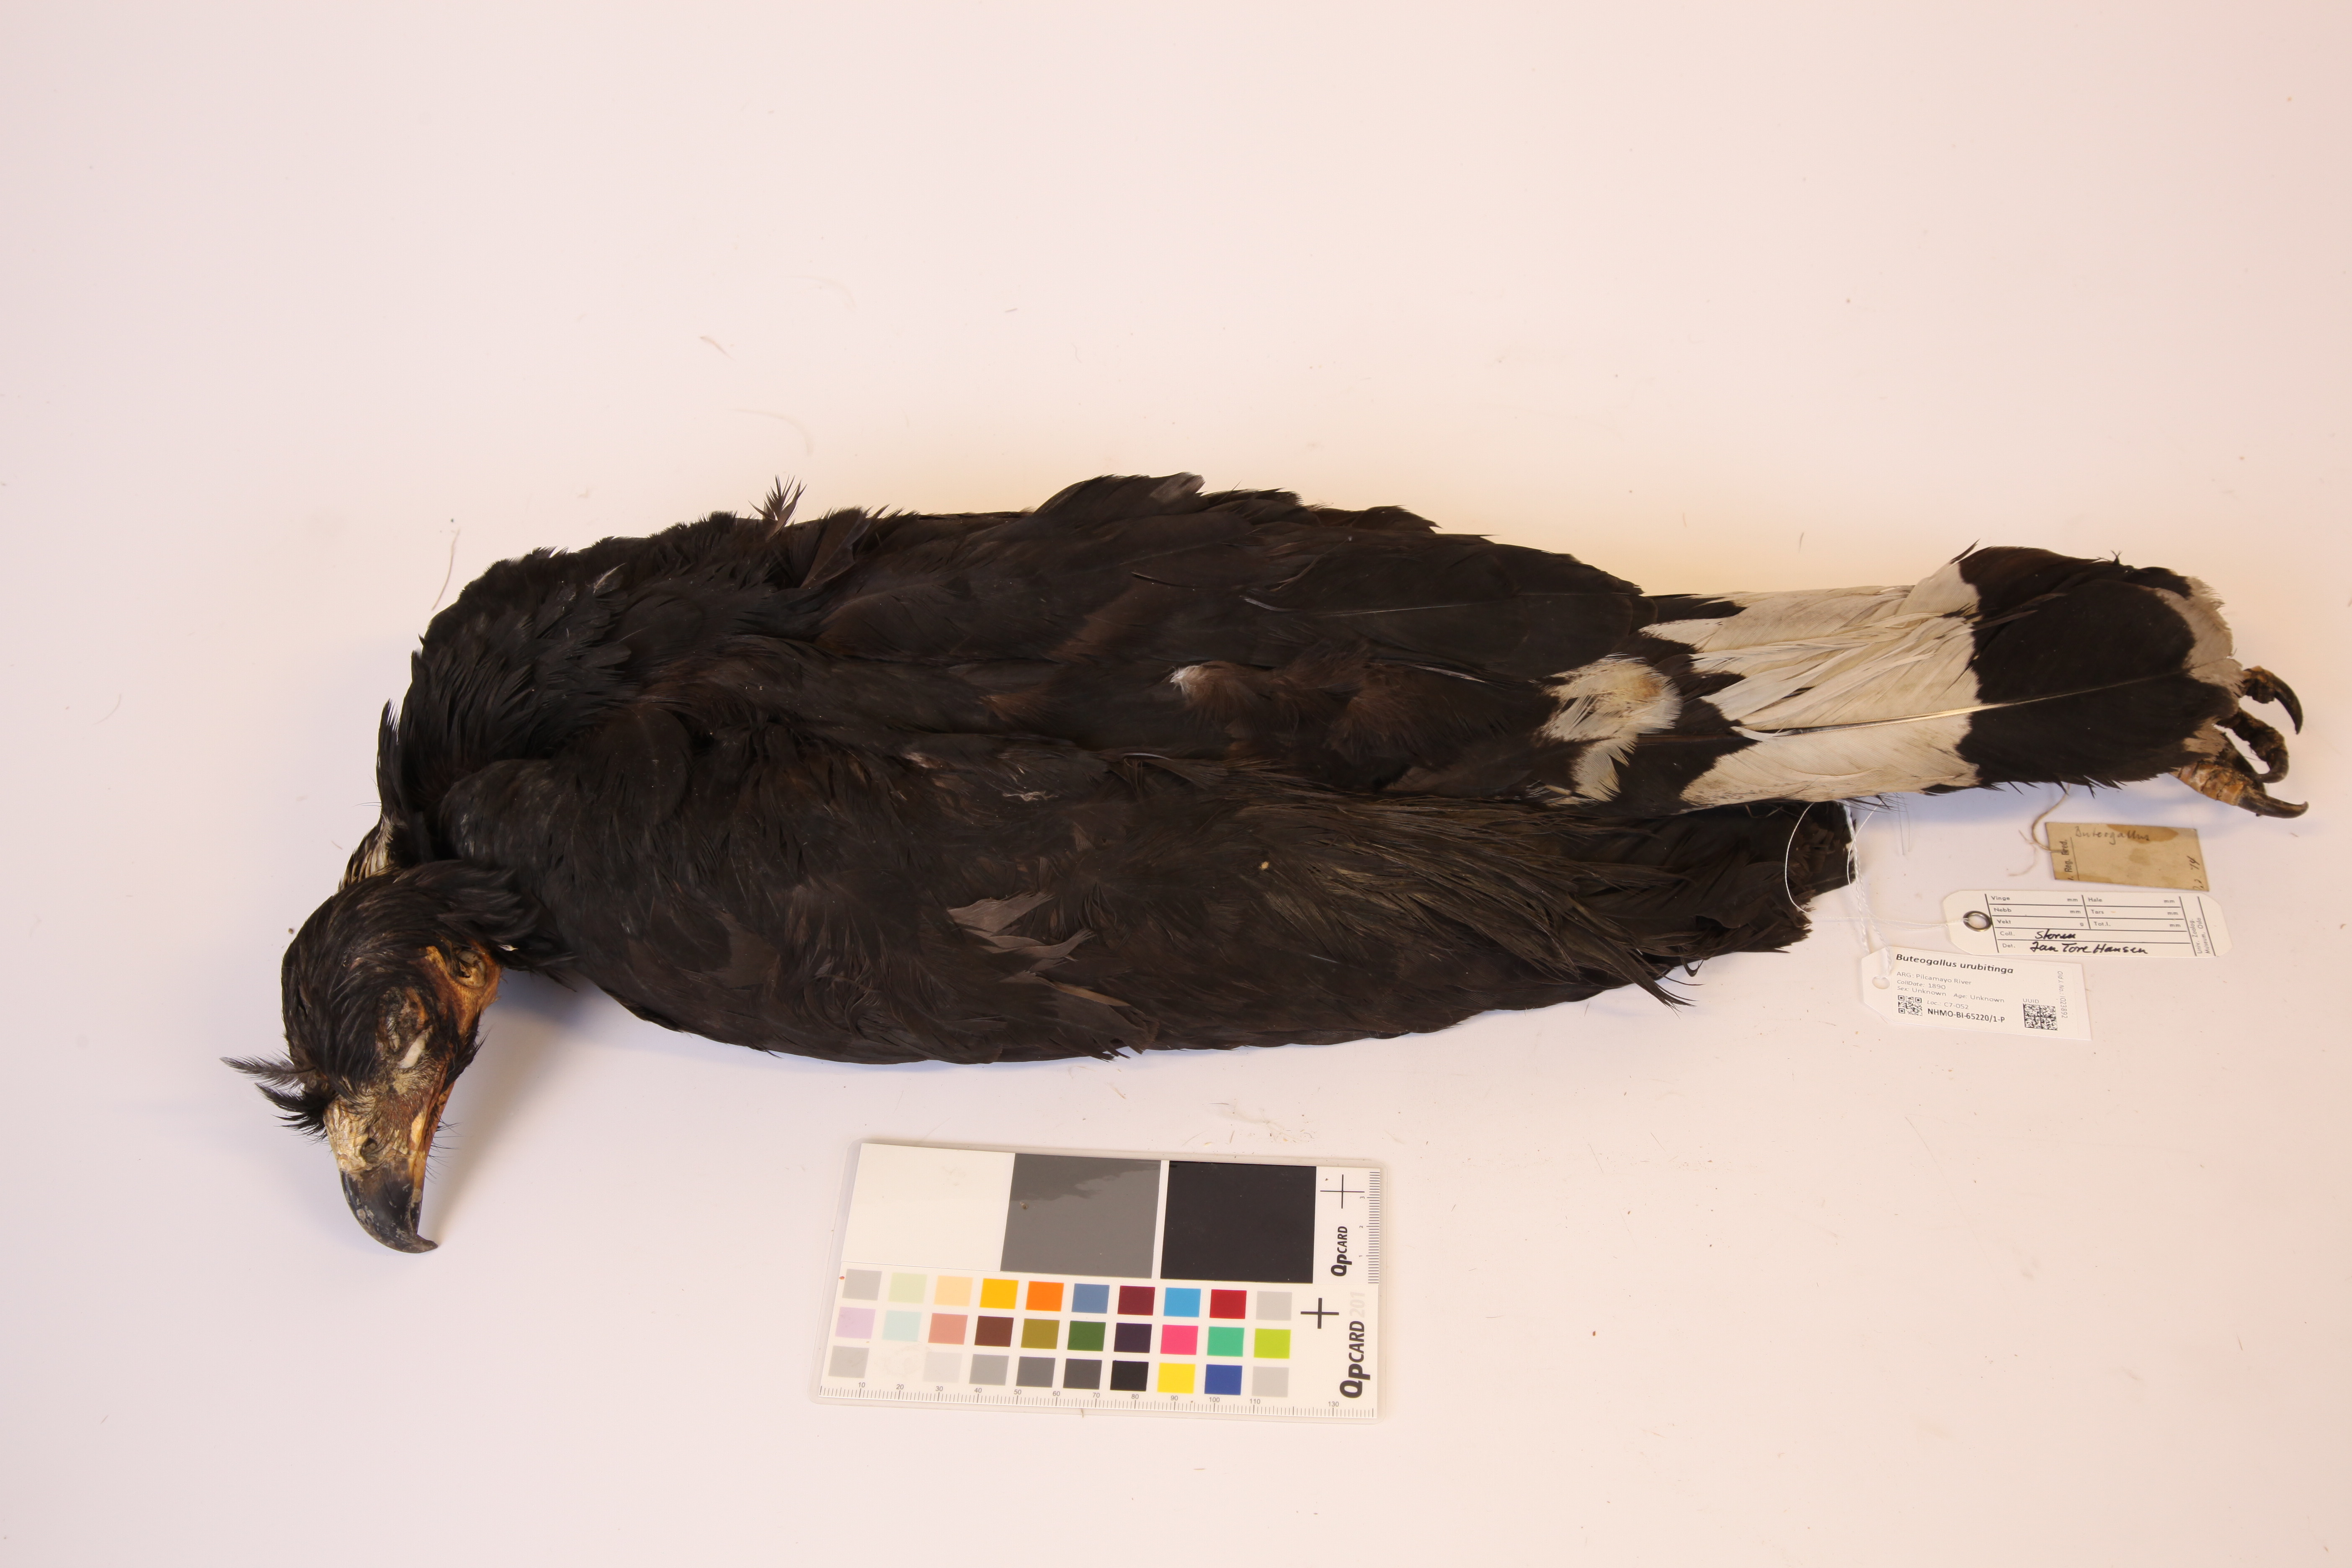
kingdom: Animalia
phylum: Chordata
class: Aves
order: Accipitriformes
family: Accipitridae
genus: Buteogallus
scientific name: Buteogallus urubitinga
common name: Great black hawk
